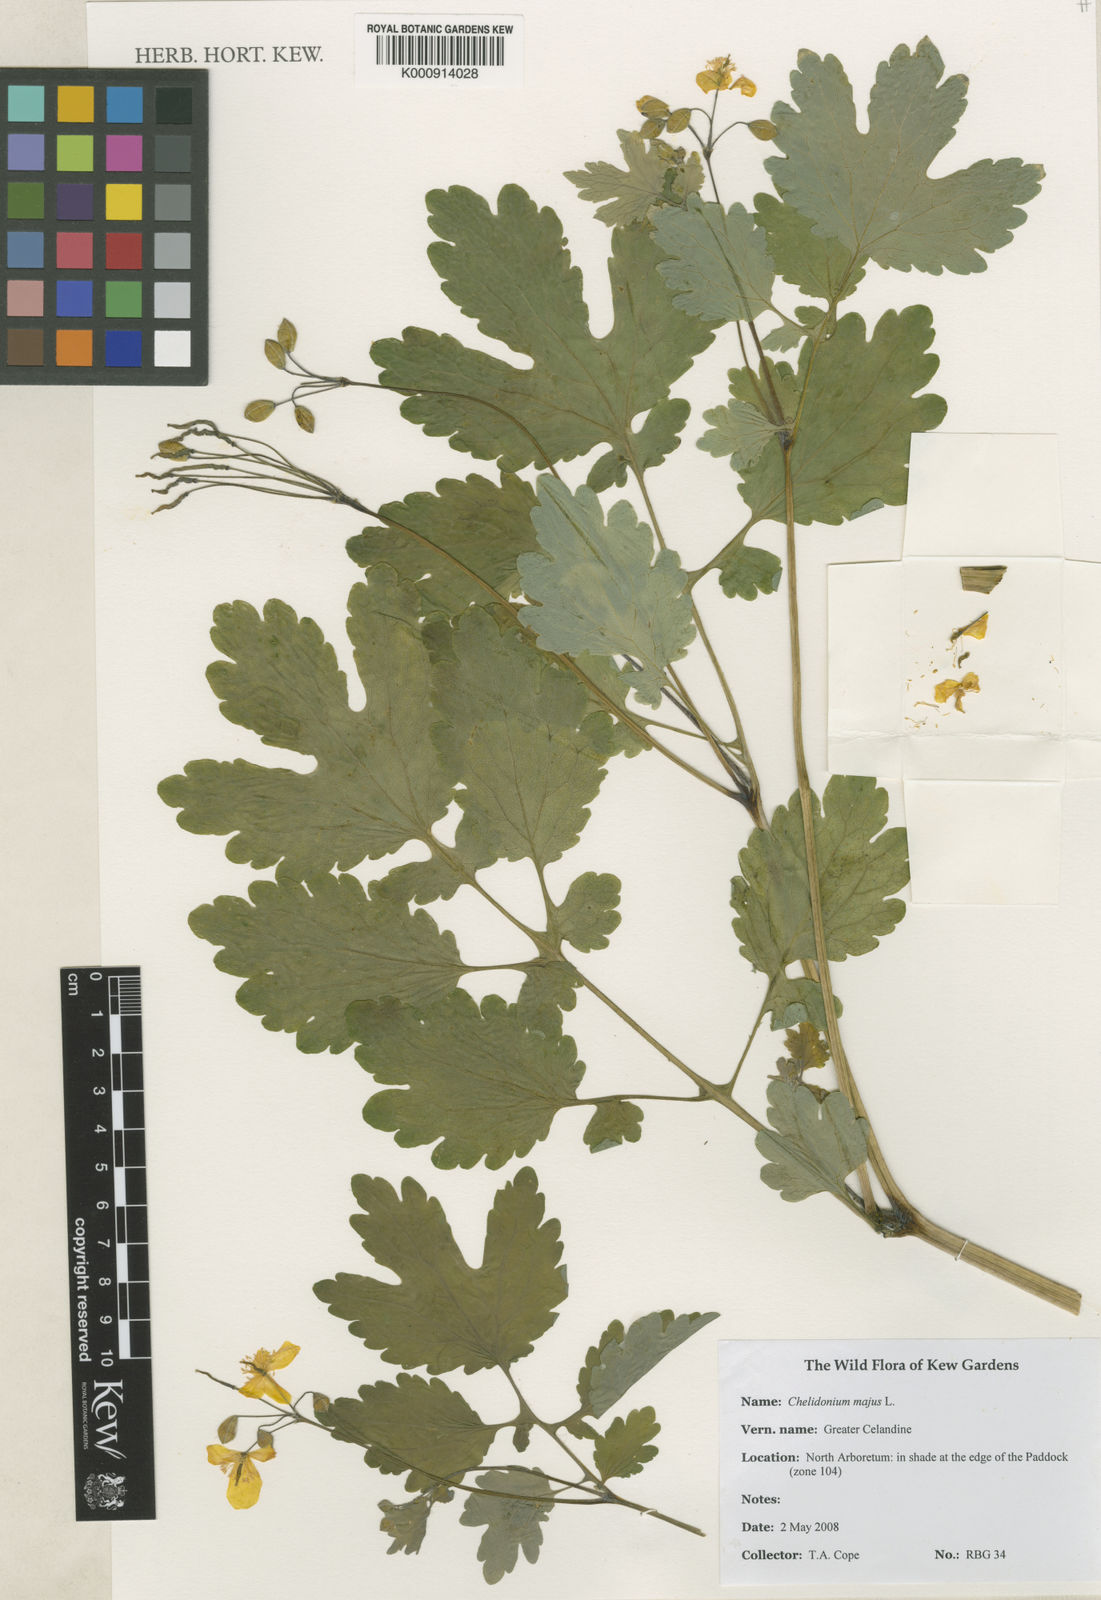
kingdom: Plantae
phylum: Tracheophyta
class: Magnoliopsida
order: Ranunculales
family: Papaveraceae
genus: Chelidonium
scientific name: Chelidonium majus
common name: Greater celandine
